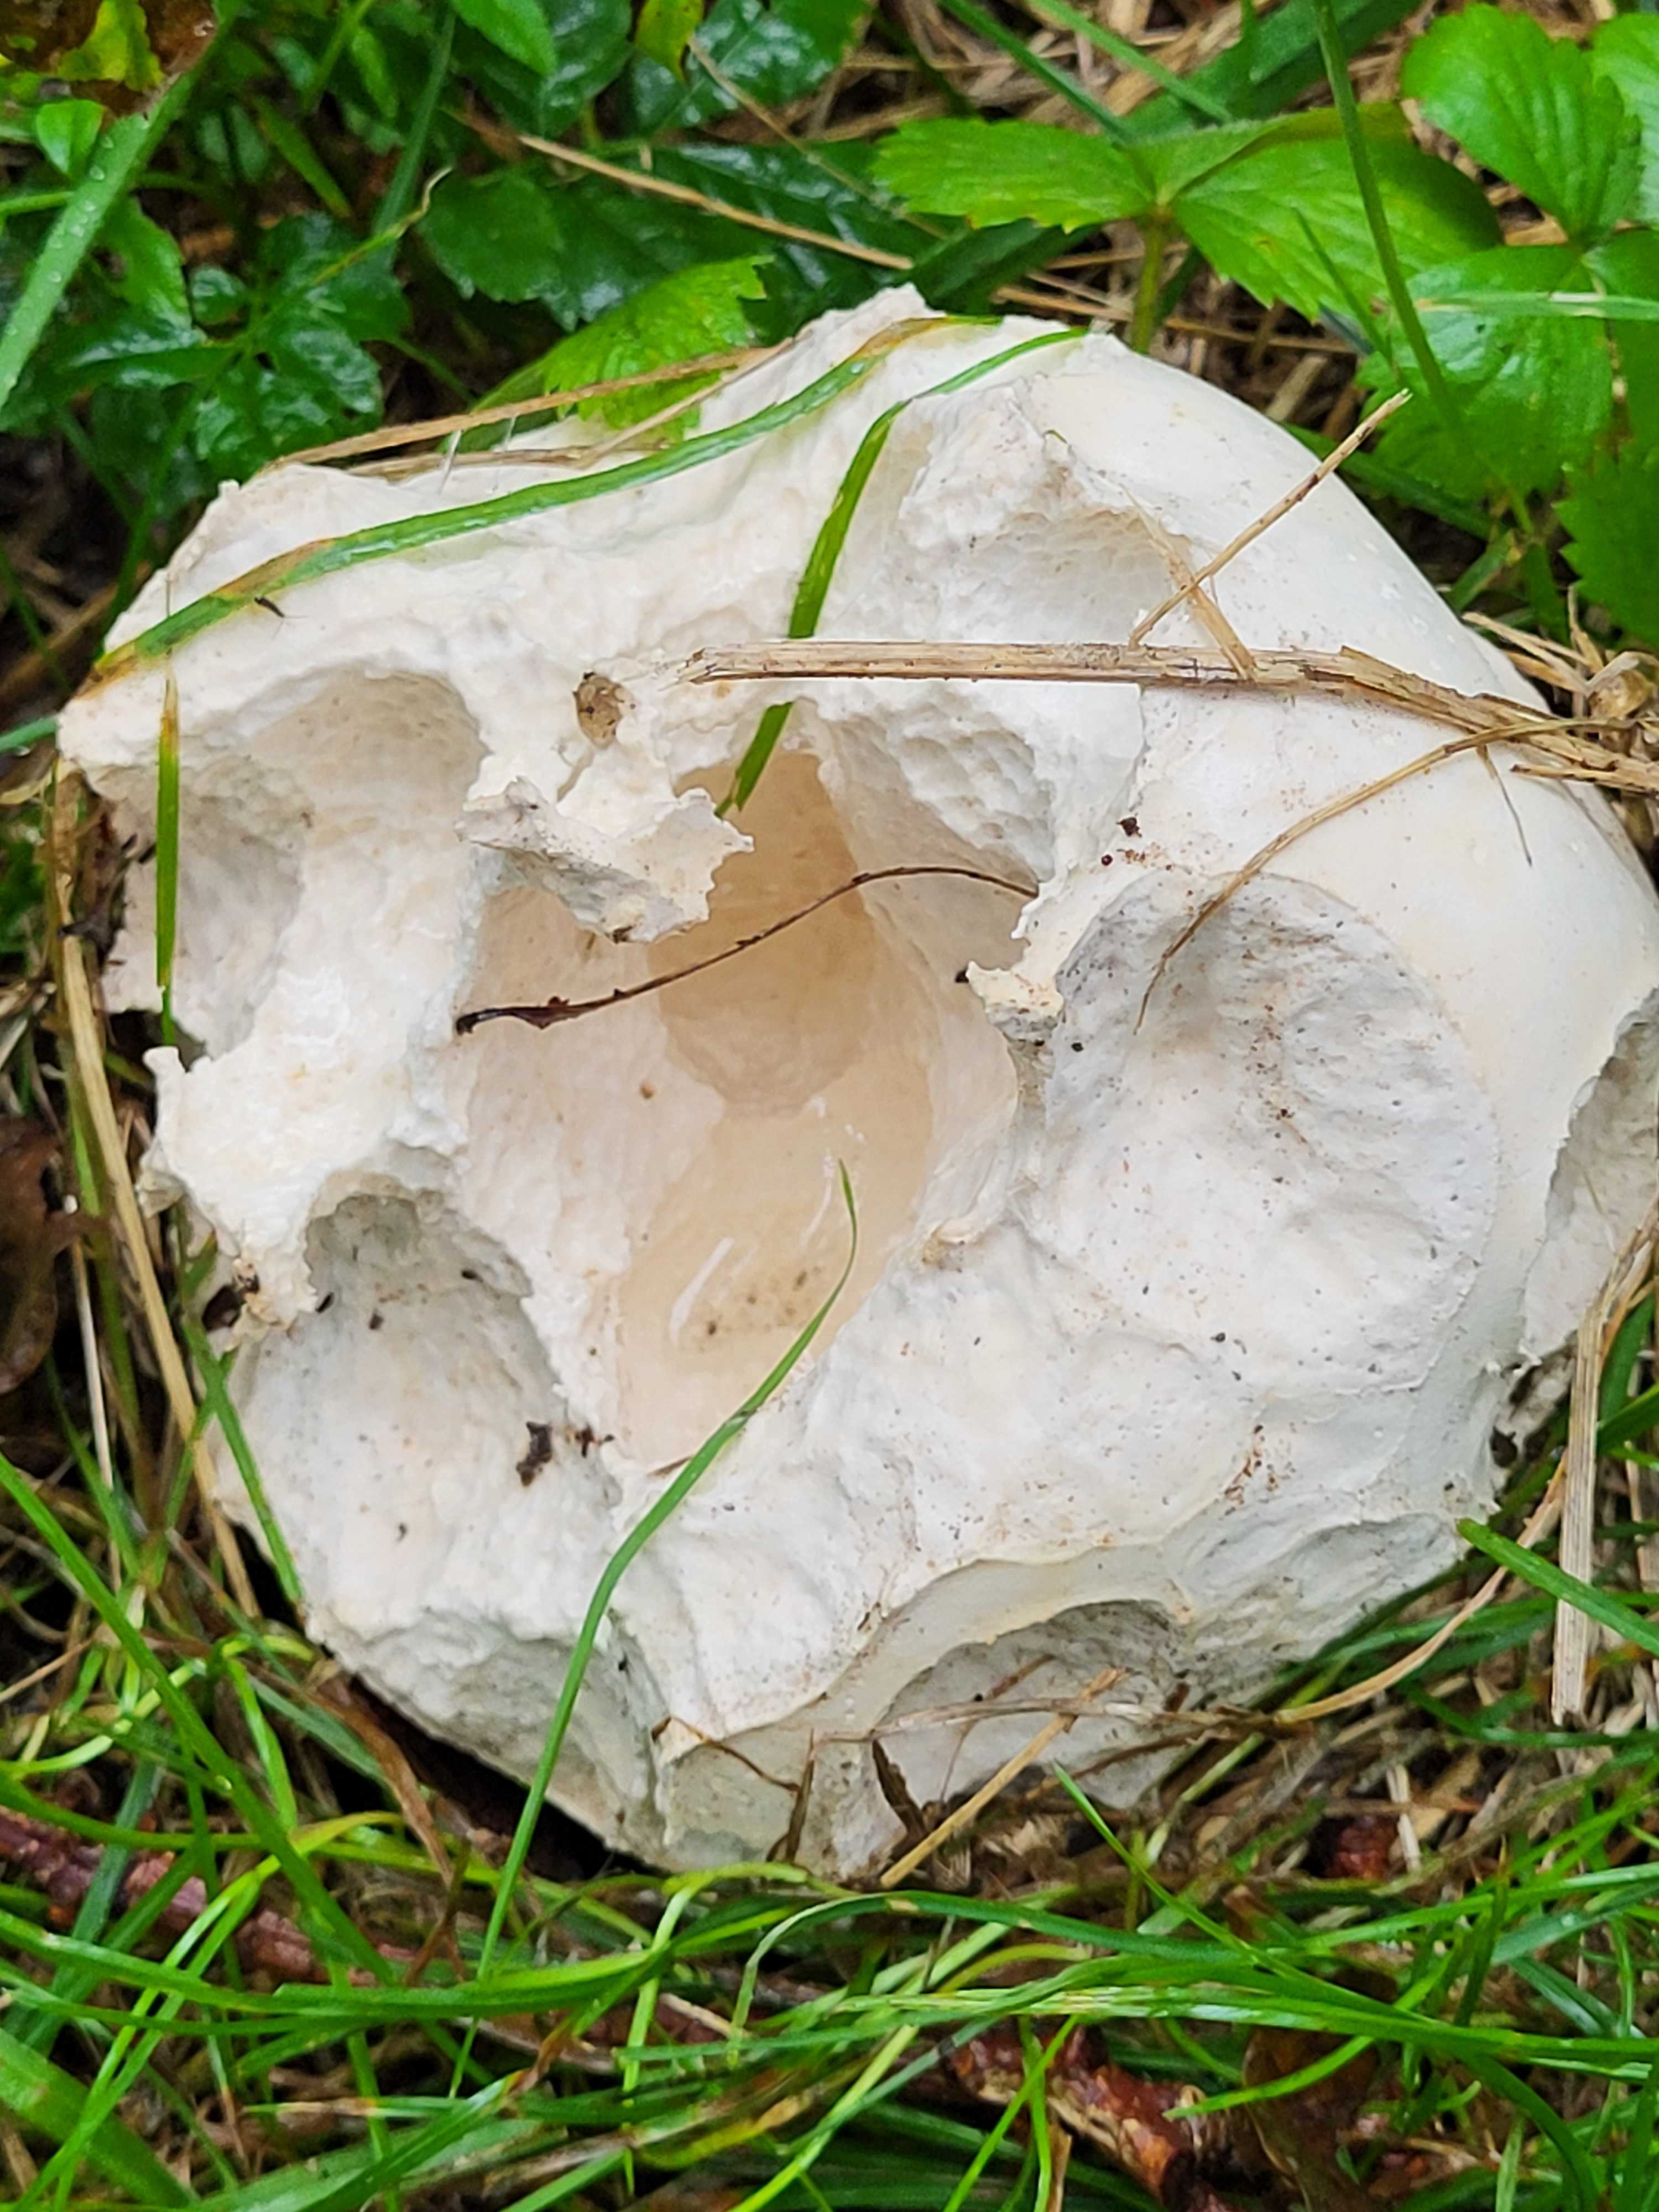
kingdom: Fungi
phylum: Basidiomycota
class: Agaricomycetes
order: Agaricales
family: Lycoperdaceae
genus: Calvatia
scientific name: Calvatia gigantea
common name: kæmpestøvbold
